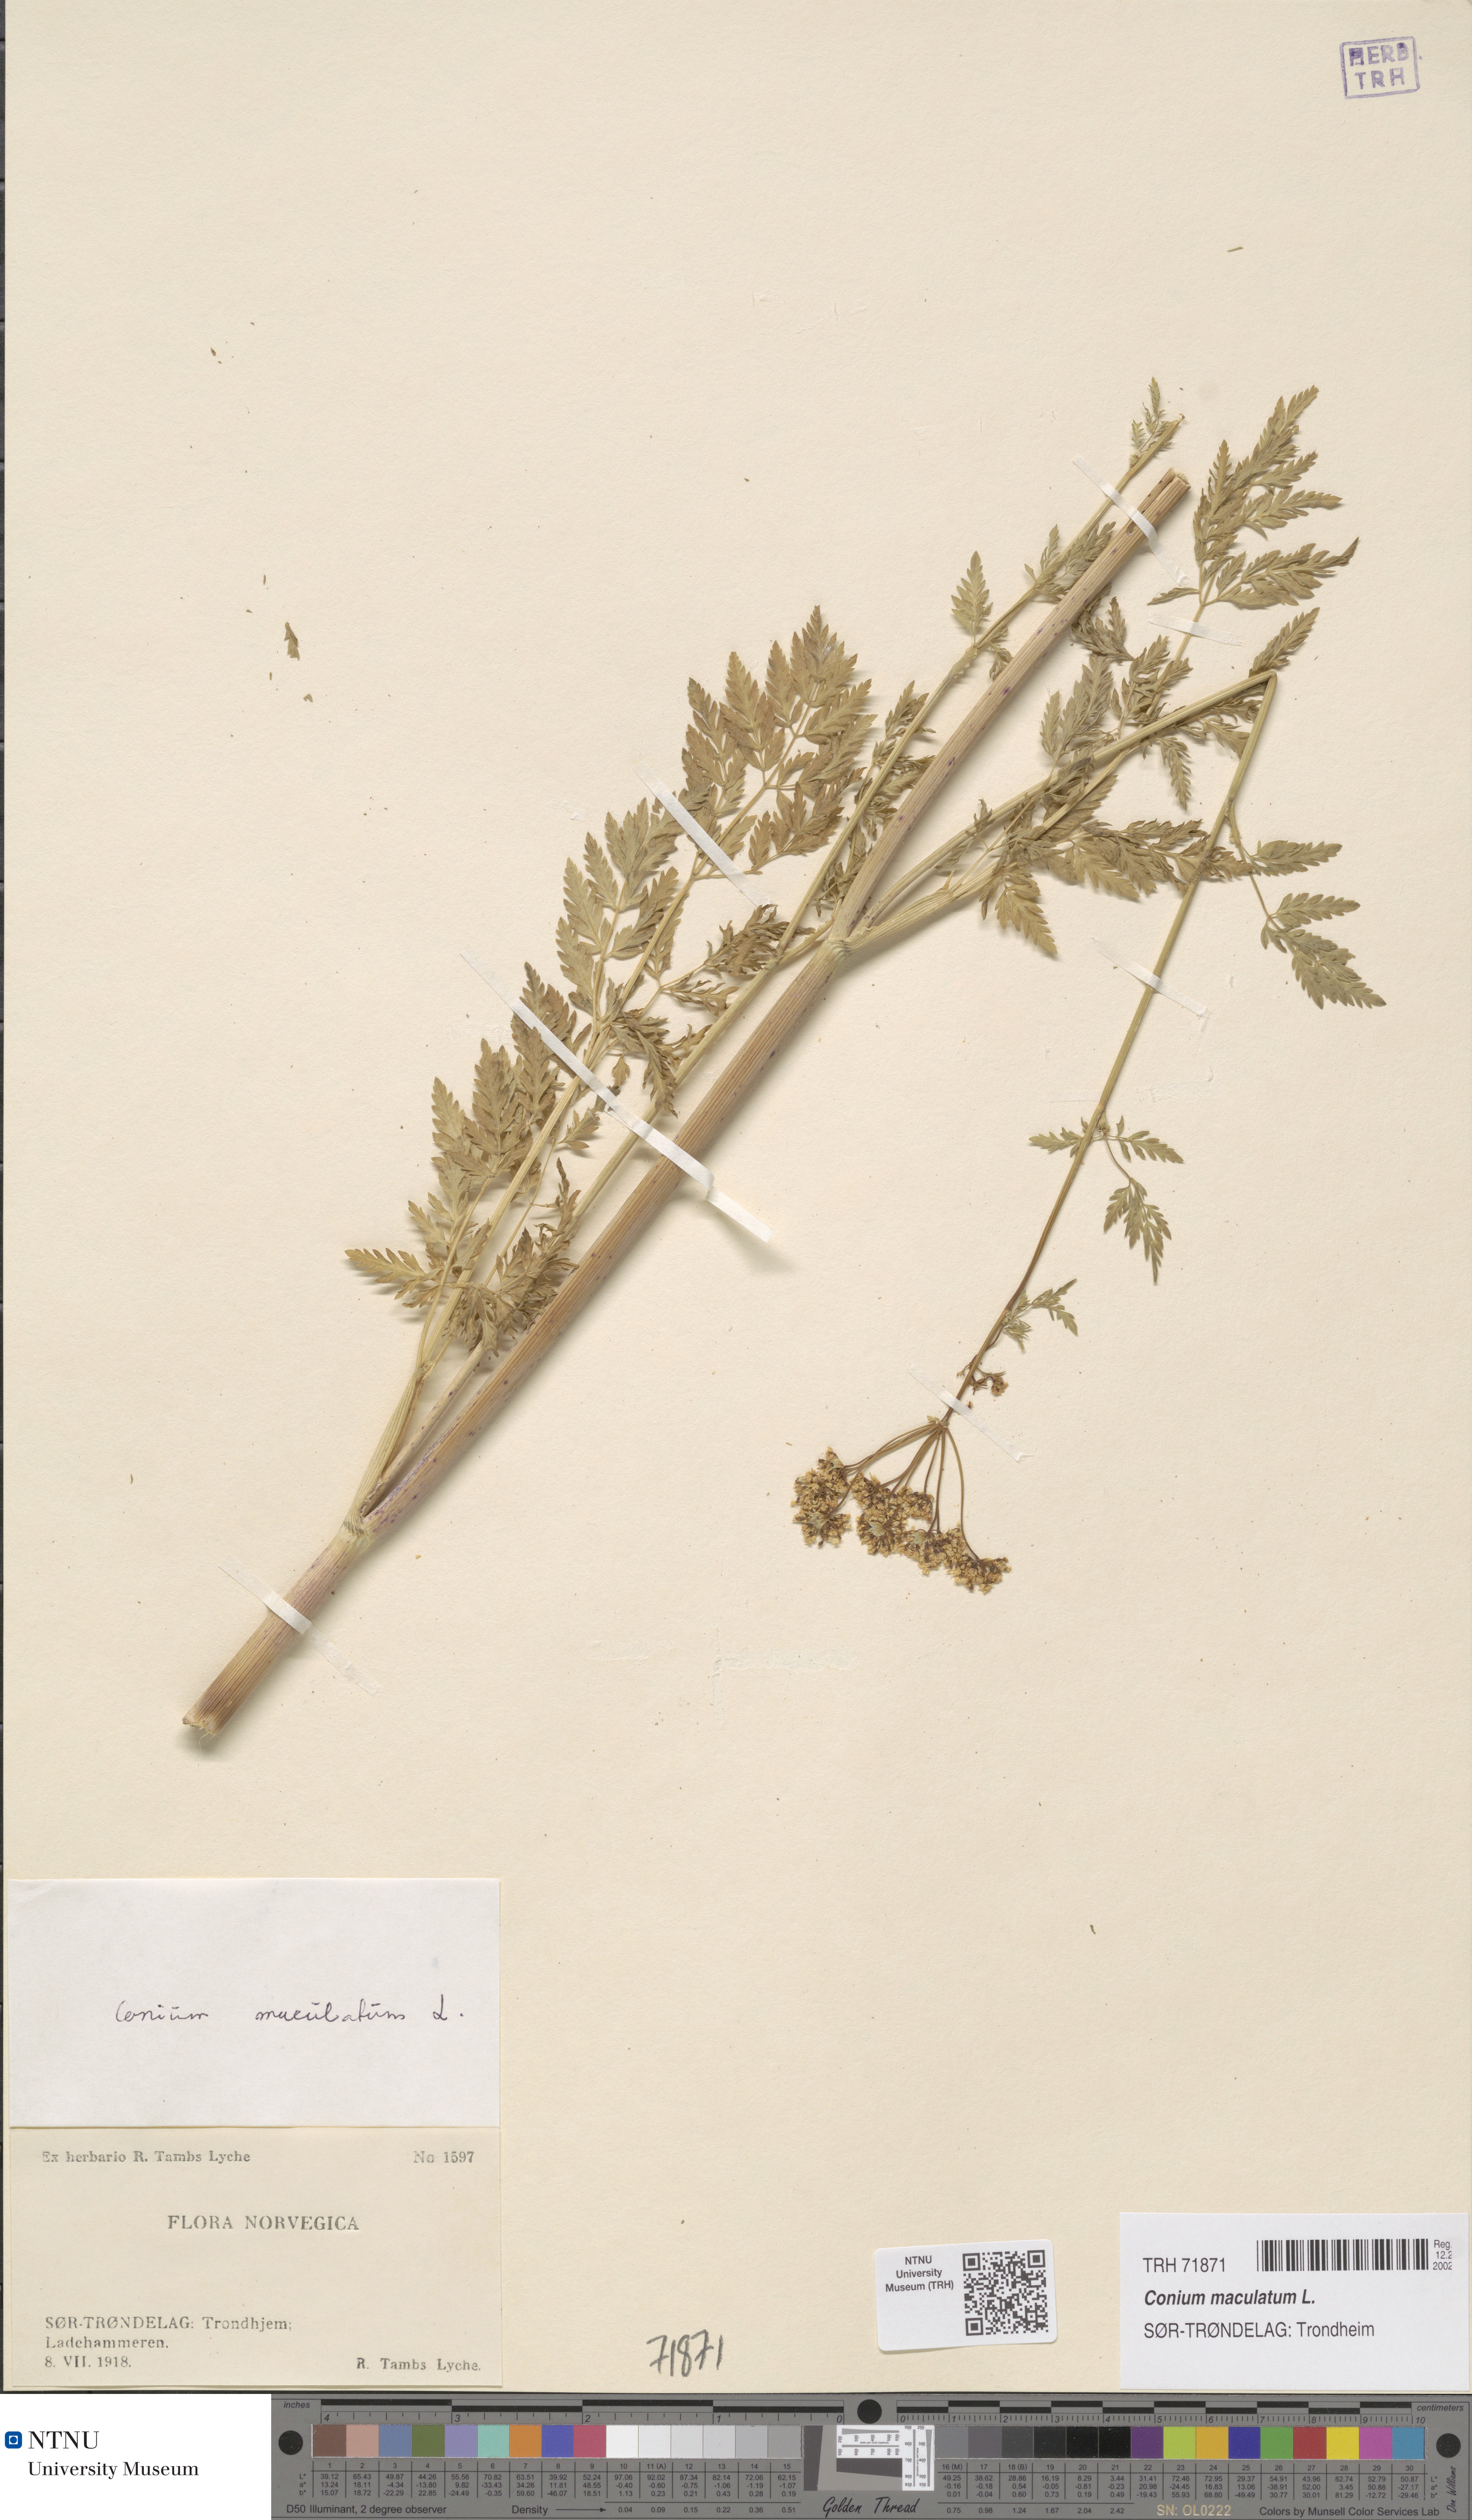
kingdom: Plantae
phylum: Tracheophyta
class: Magnoliopsida
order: Apiales
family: Apiaceae
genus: Conium
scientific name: Conium maculatum
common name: Hemlock
